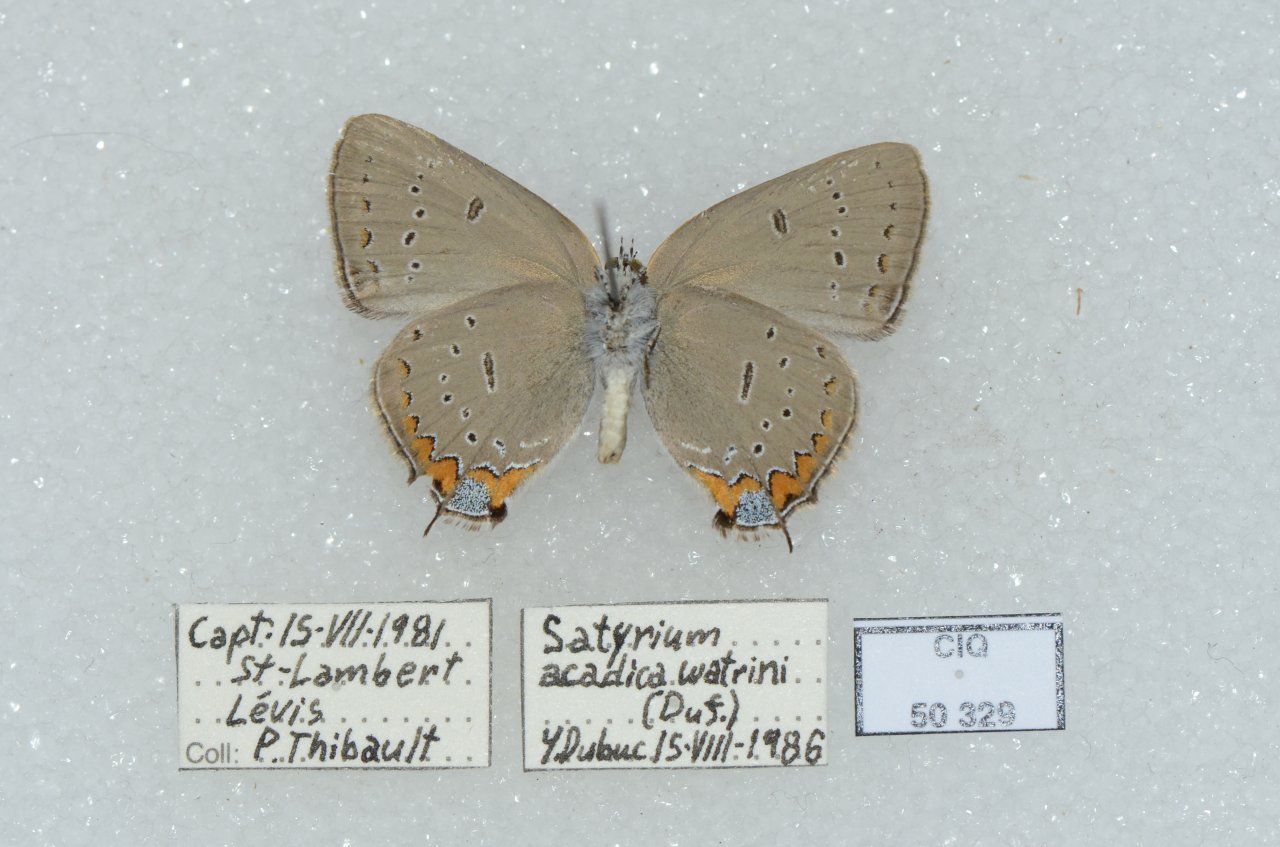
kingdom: Animalia
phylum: Arthropoda
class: Insecta
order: Lepidoptera
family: Lycaenidae
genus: Strymon
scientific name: Strymon acadica
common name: Acadian Hairstreak
